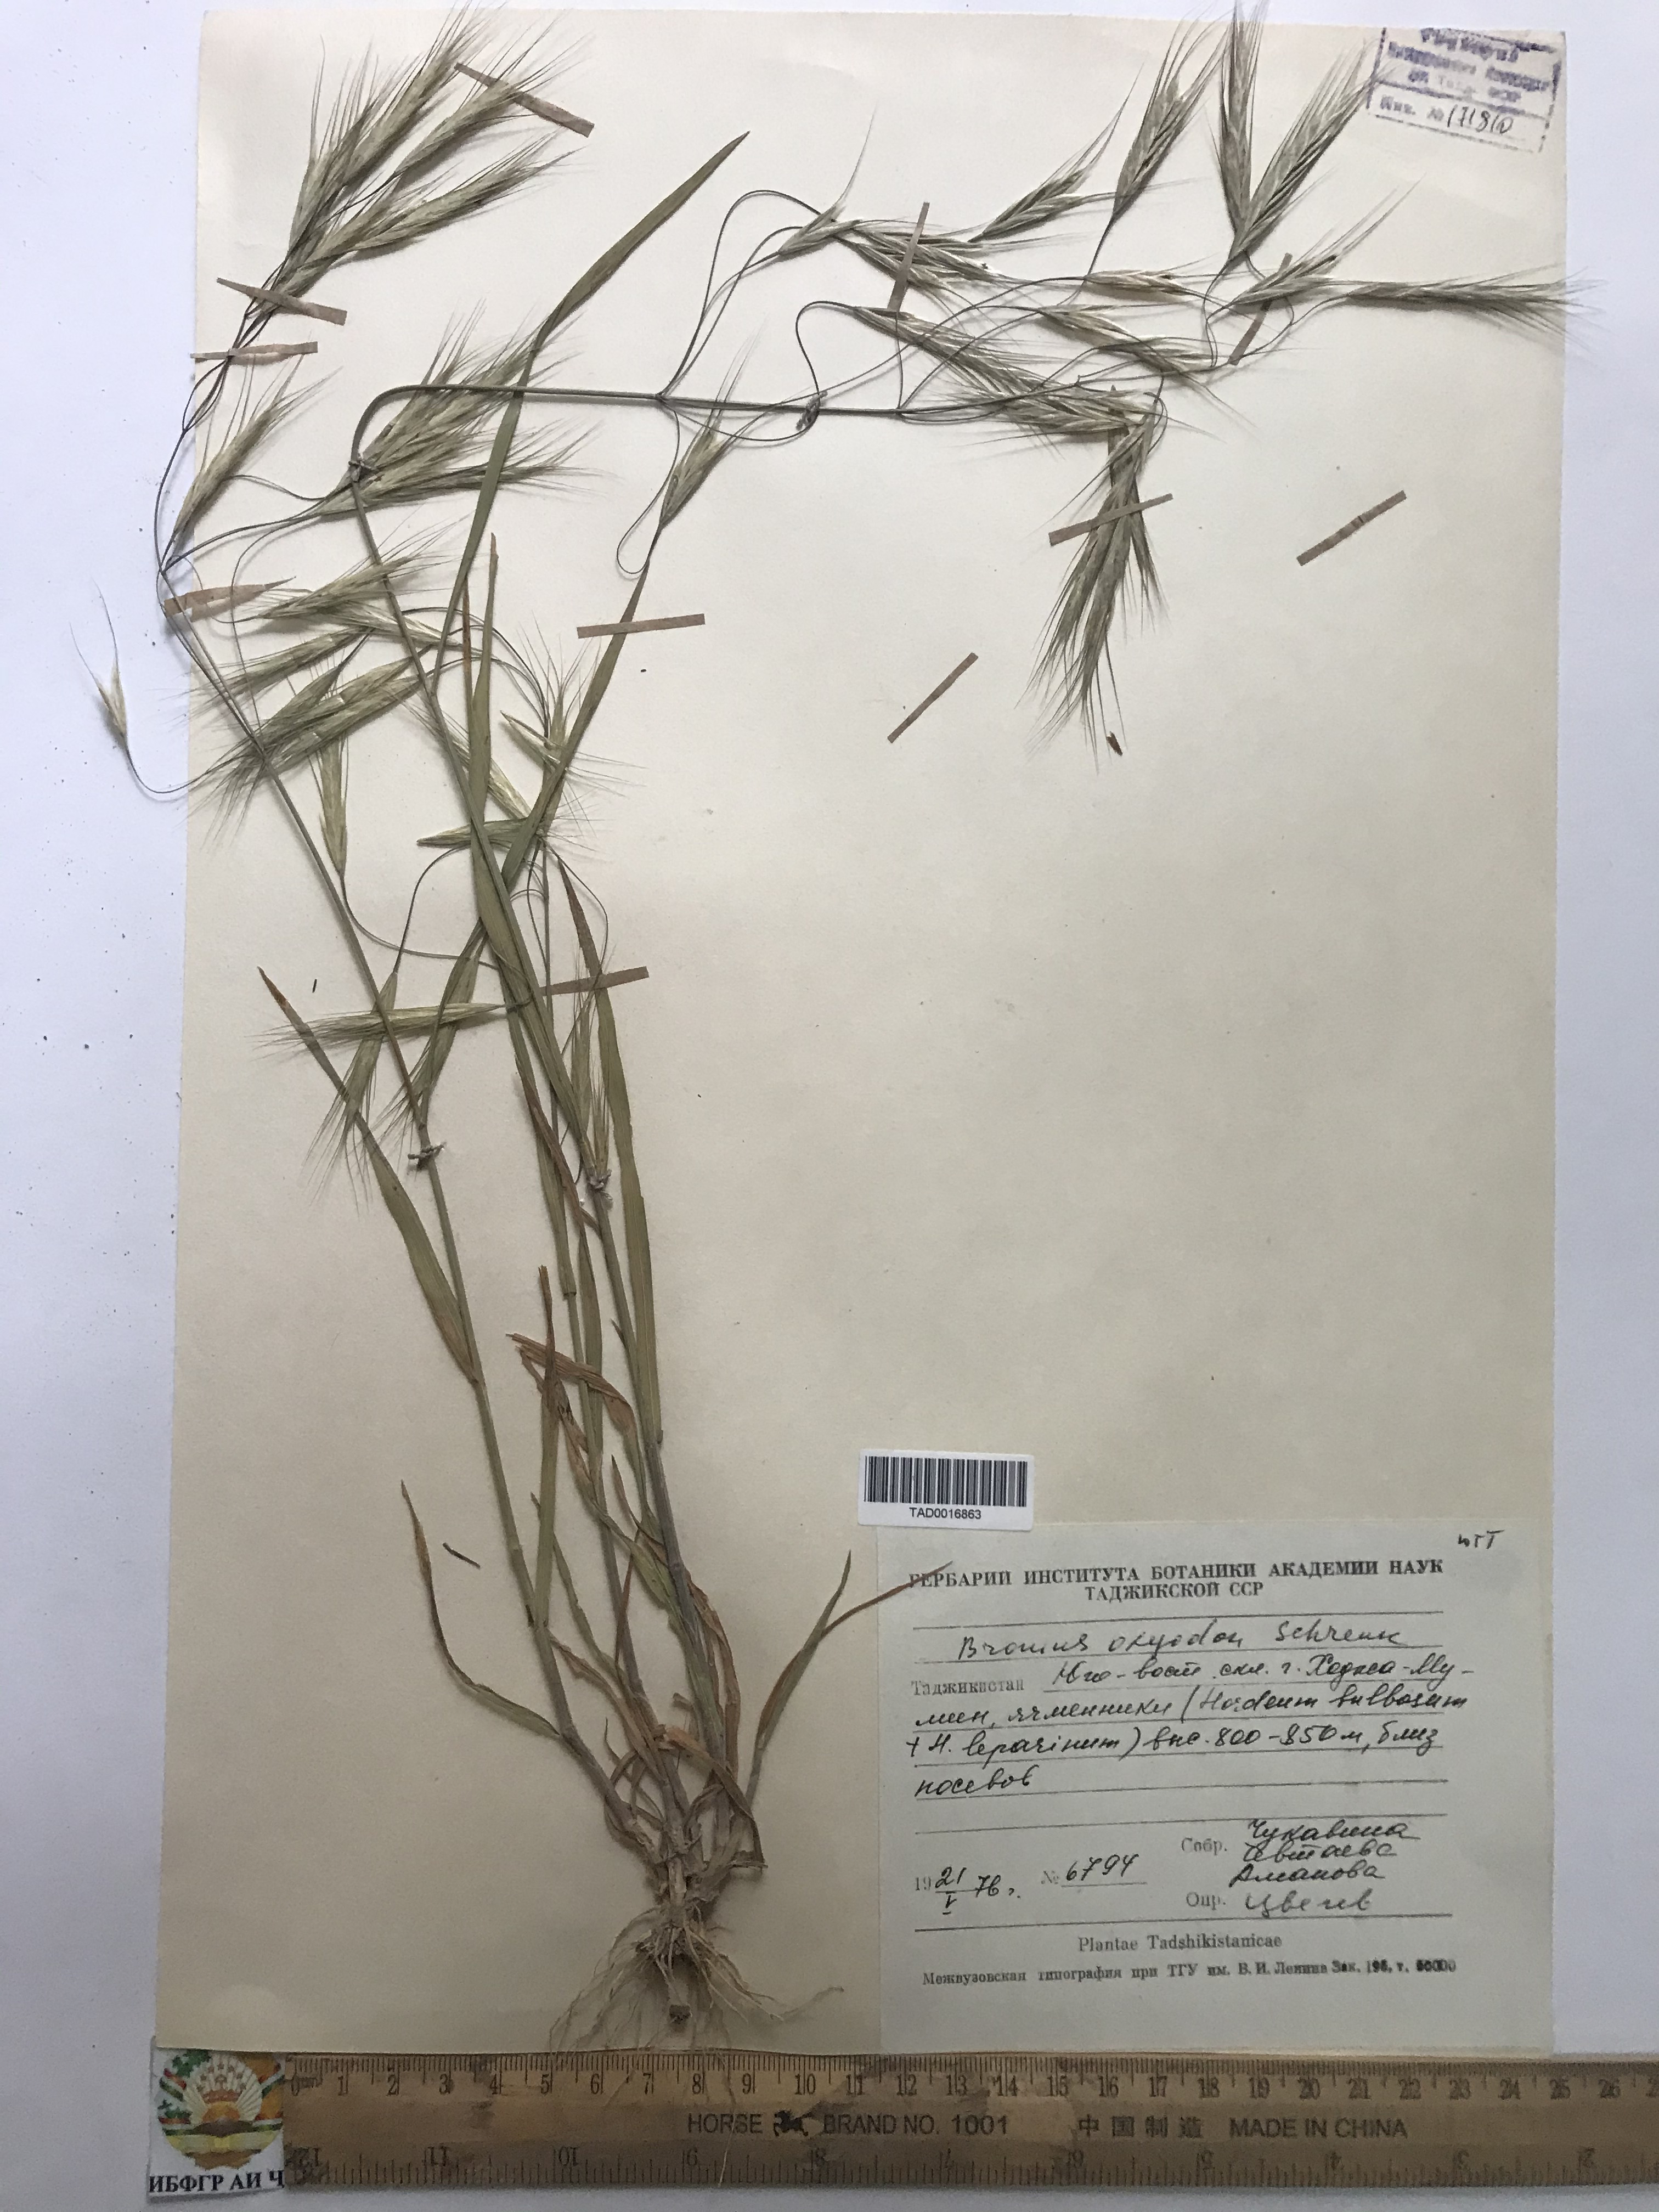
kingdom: Plantae
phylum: Tracheophyta
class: Liliopsida
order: Poales
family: Poaceae
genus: Bromus
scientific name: Bromus oxyodon
